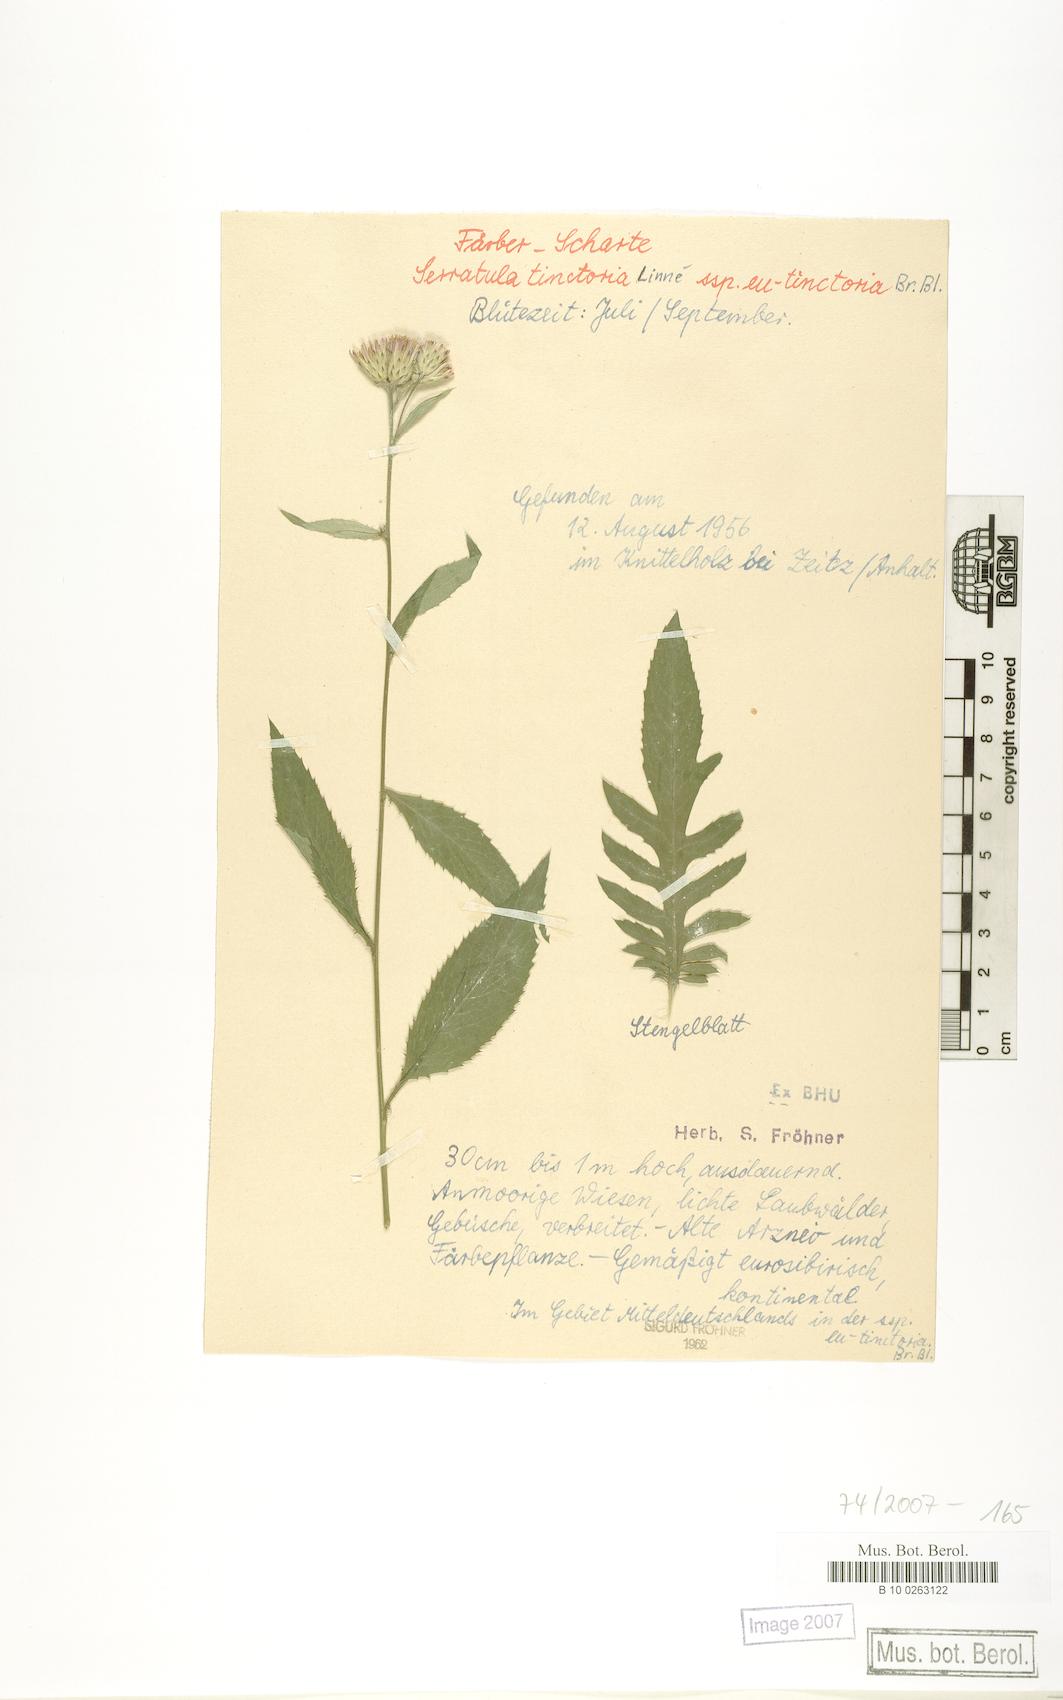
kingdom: Plantae
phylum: Tracheophyta
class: Magnoliopsida
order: Asterales
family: Asteraceae
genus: Serratula
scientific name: Serratula tinctoria
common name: Saw-wort
